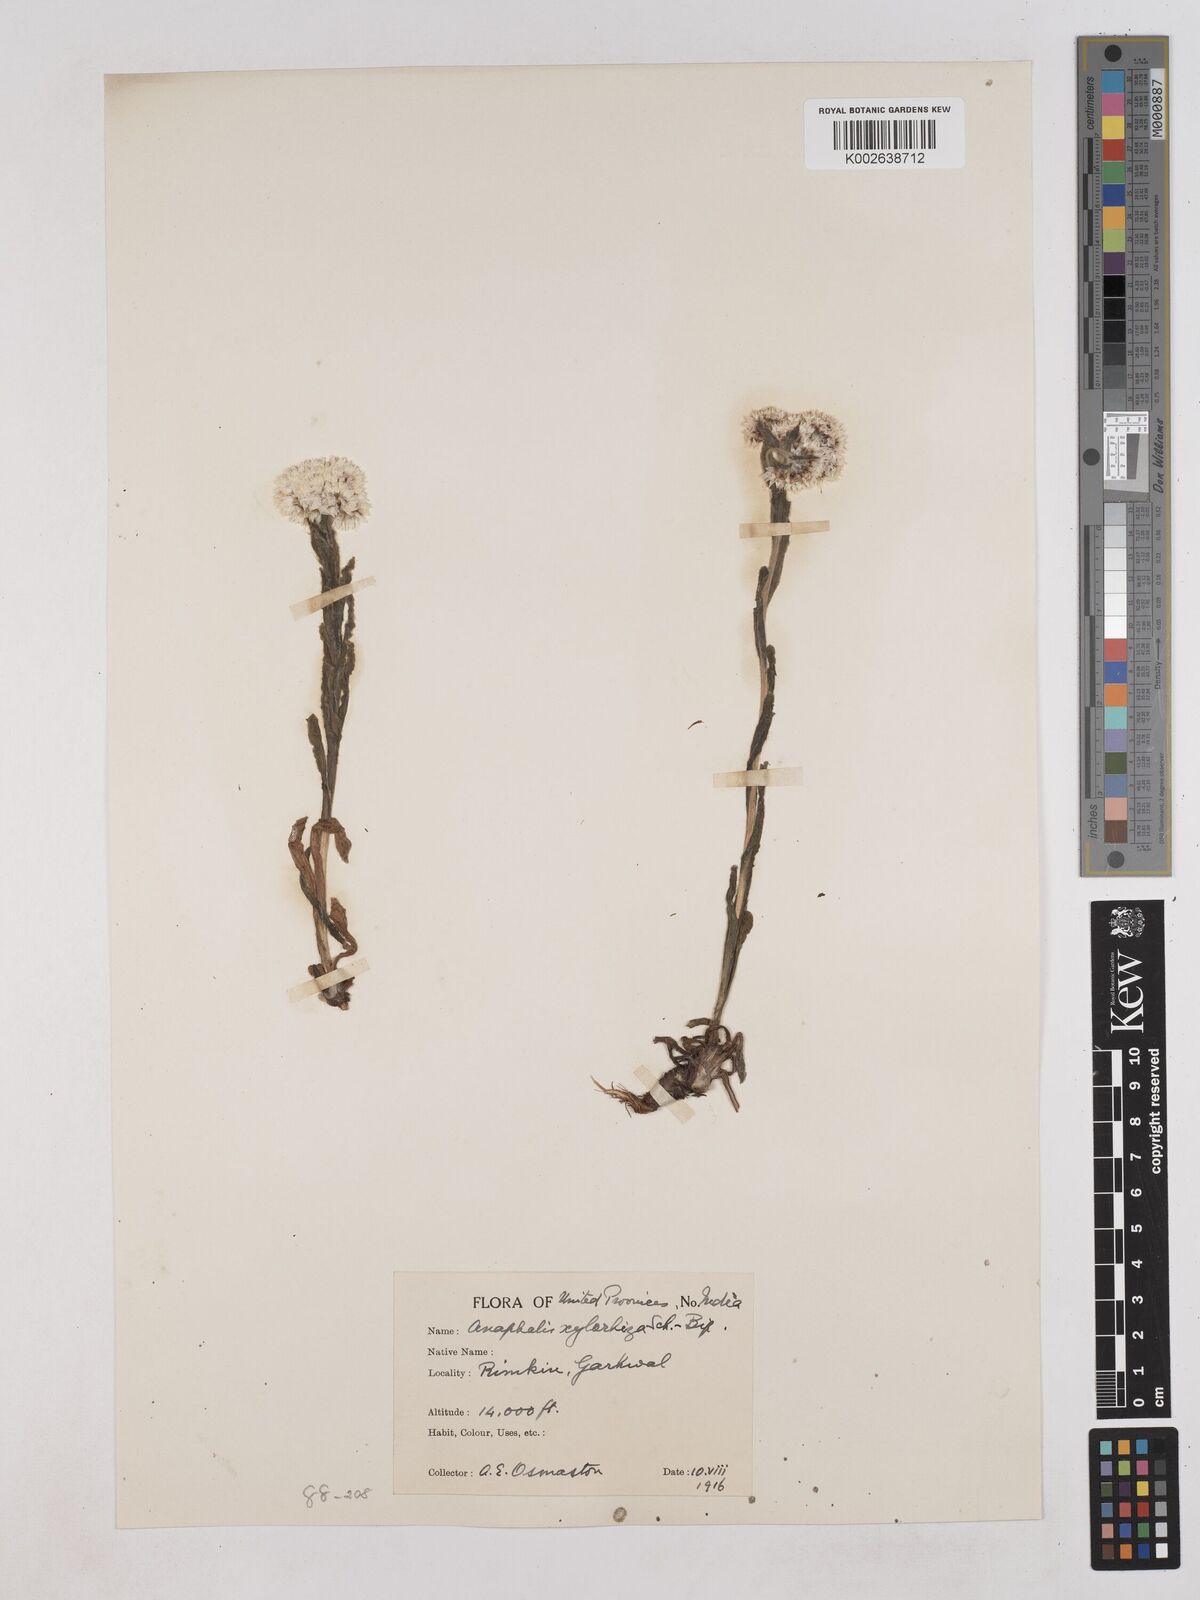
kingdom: Plantae
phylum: Tracheophyta
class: Magnoliopsida
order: Asterales
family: Asteraceae
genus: Anaphalis
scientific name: Anaphalis xylorhiza
